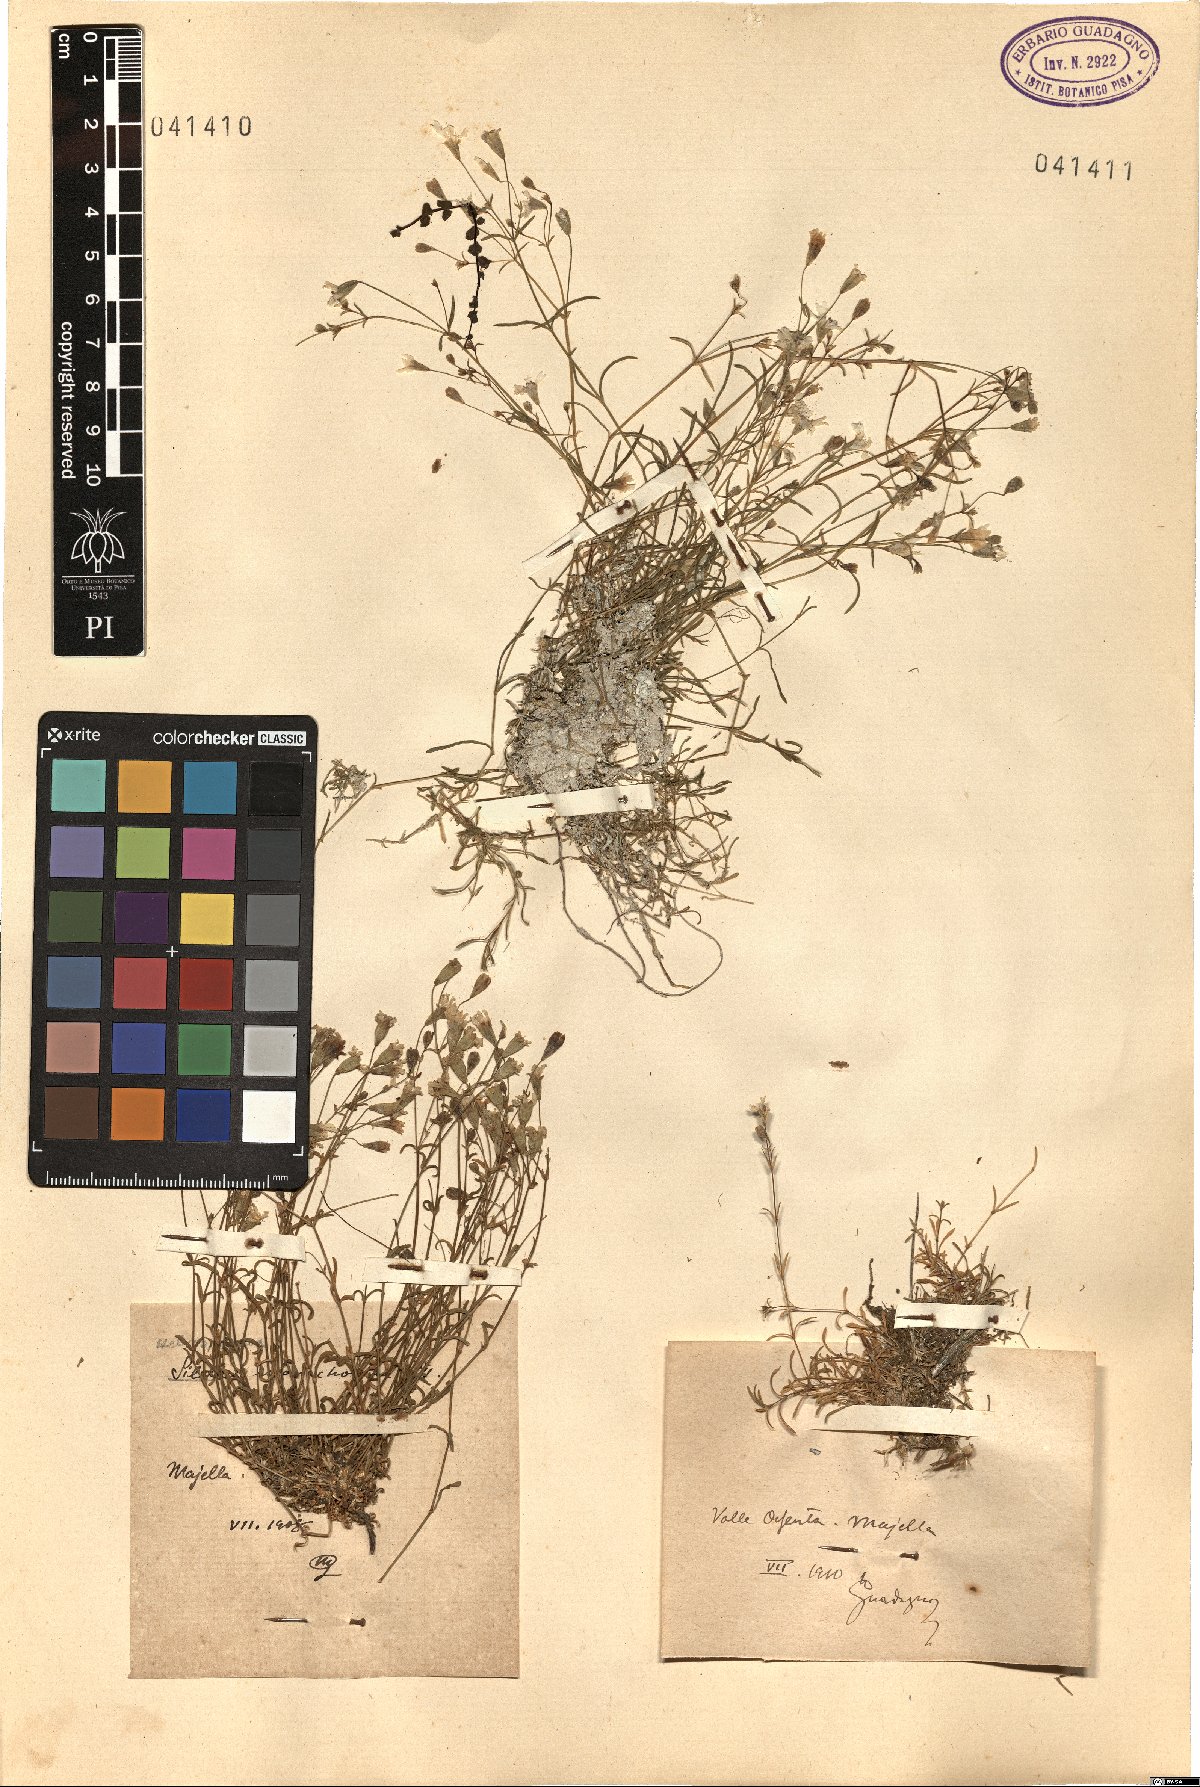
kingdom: Plantae
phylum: Tracheophyta
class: Magnoliopsida
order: Caryophyllales
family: Caryophyllaceae
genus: Silene
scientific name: Silene
